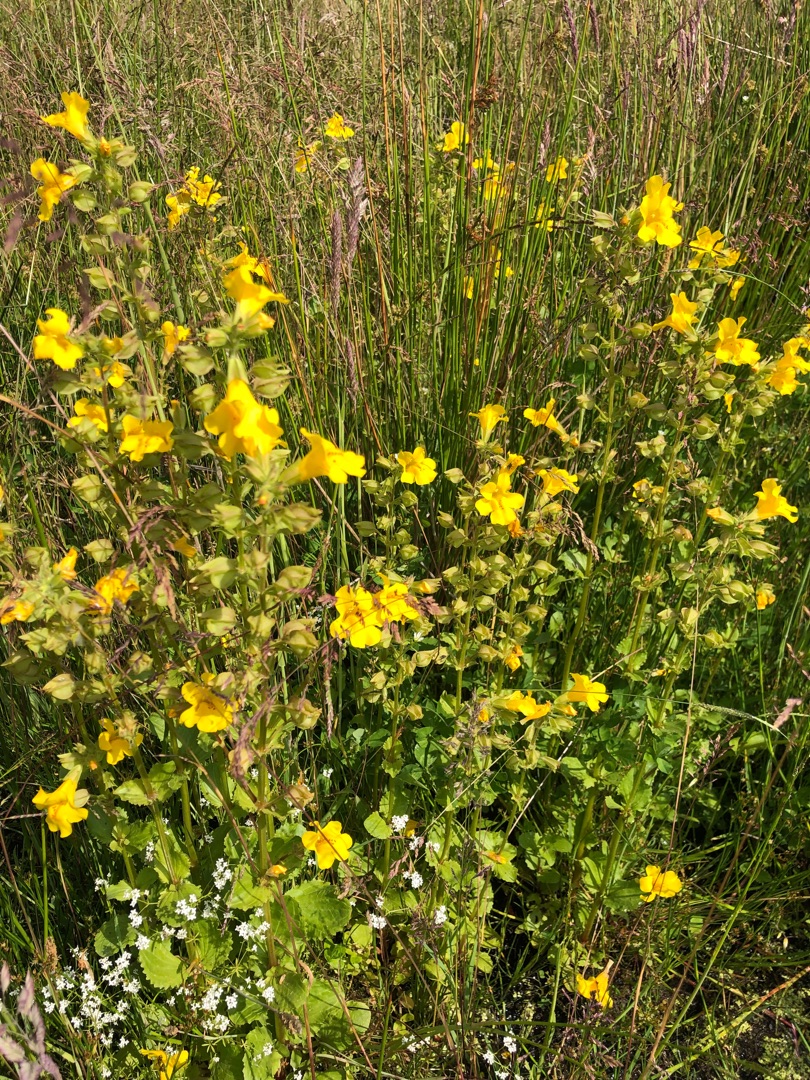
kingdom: Plantae
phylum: Tracheophyta
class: Magnoliopsida
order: Lamiales
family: Phrymaceae
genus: Erythranthe
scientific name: Erythranthe guttata
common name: Abeblomst
